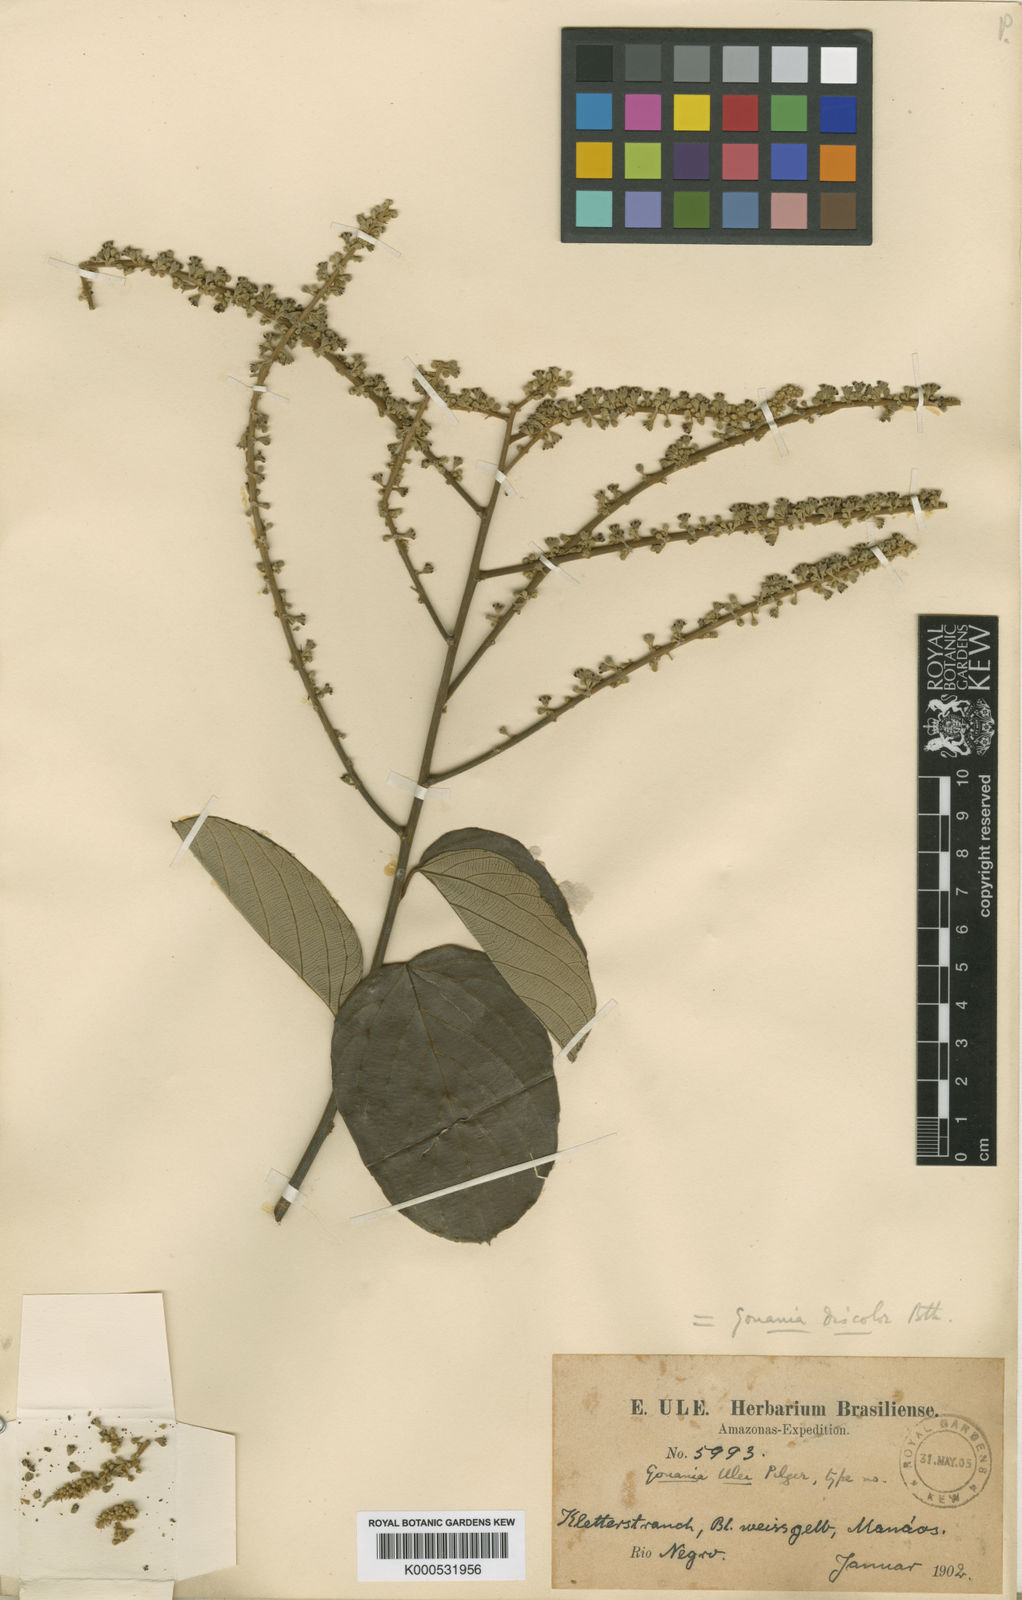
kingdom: Plantae
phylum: Tracheophyta
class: Magnoliopsida
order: Rosales
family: Rhamnaceae
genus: Gouania
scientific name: Gouania discolor
